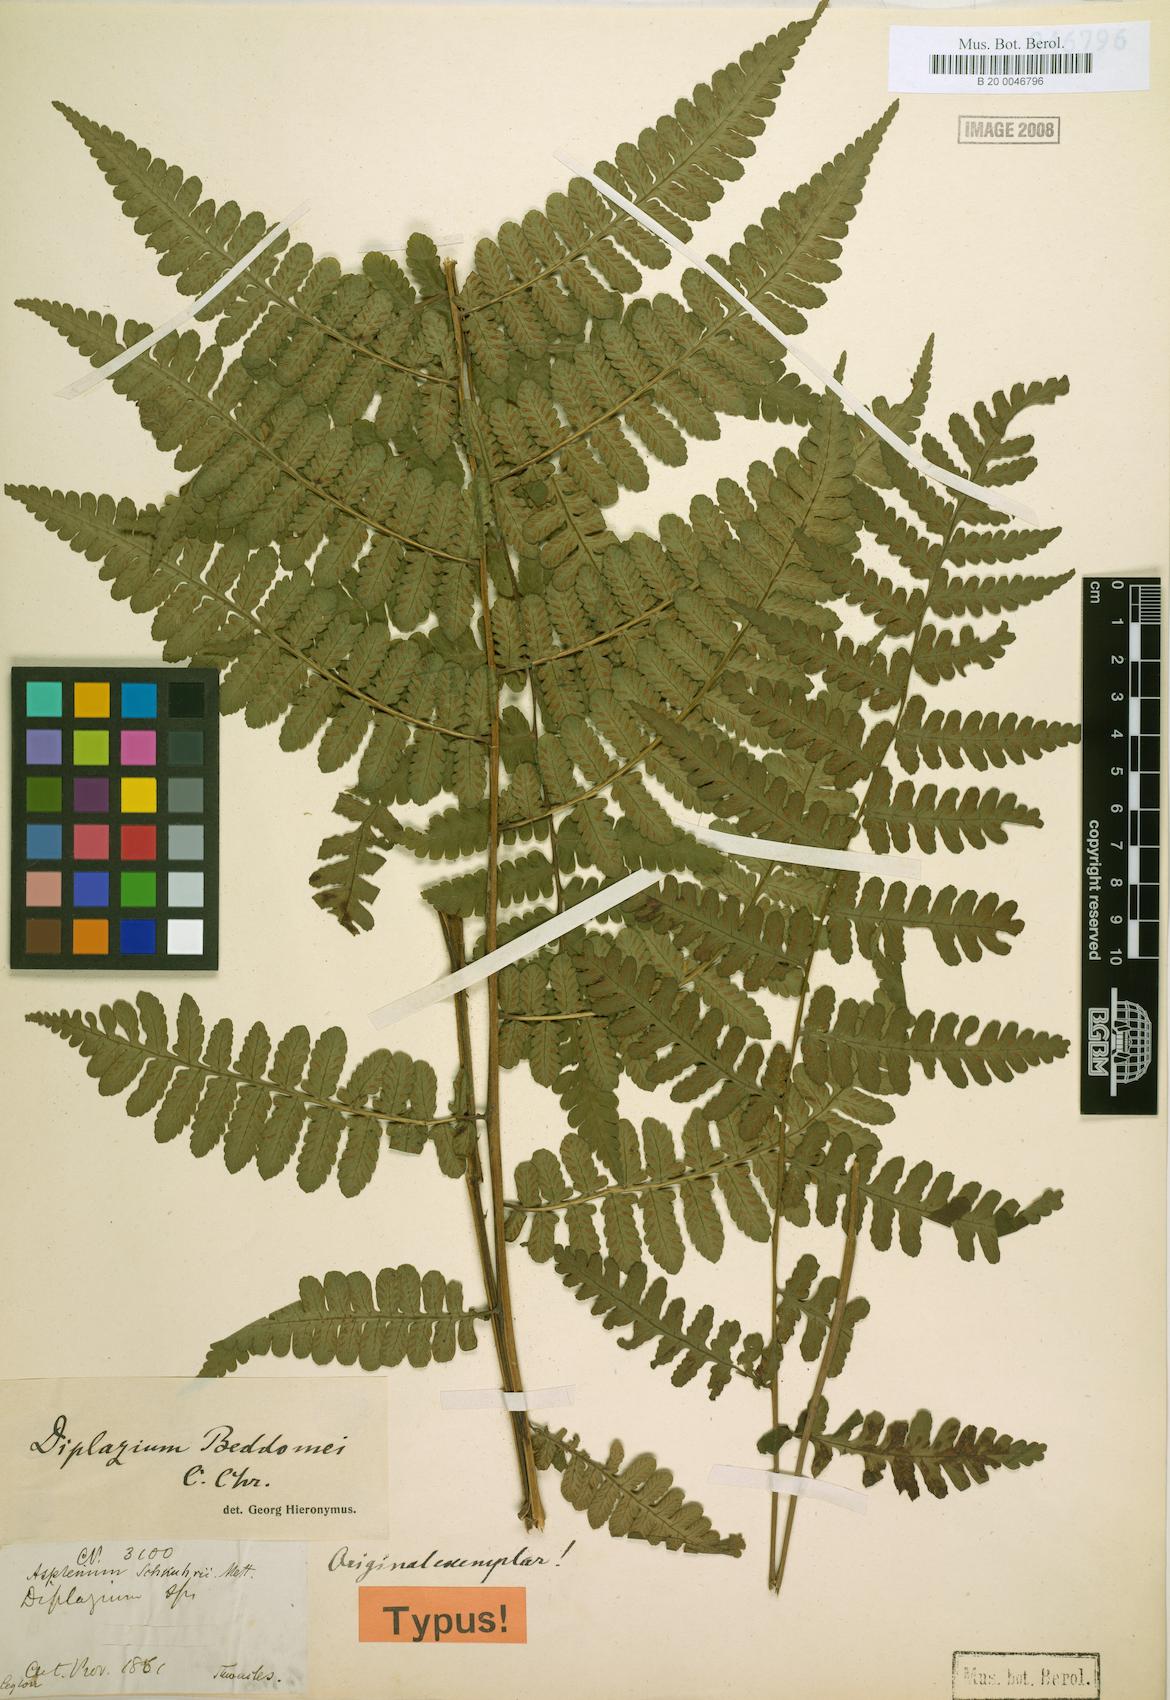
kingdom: Plantae
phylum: Tracheophyta
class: Polypodiopsida
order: Polypodiales
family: Athyriaceae
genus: Diplazium
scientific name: Diplazium beddomei
